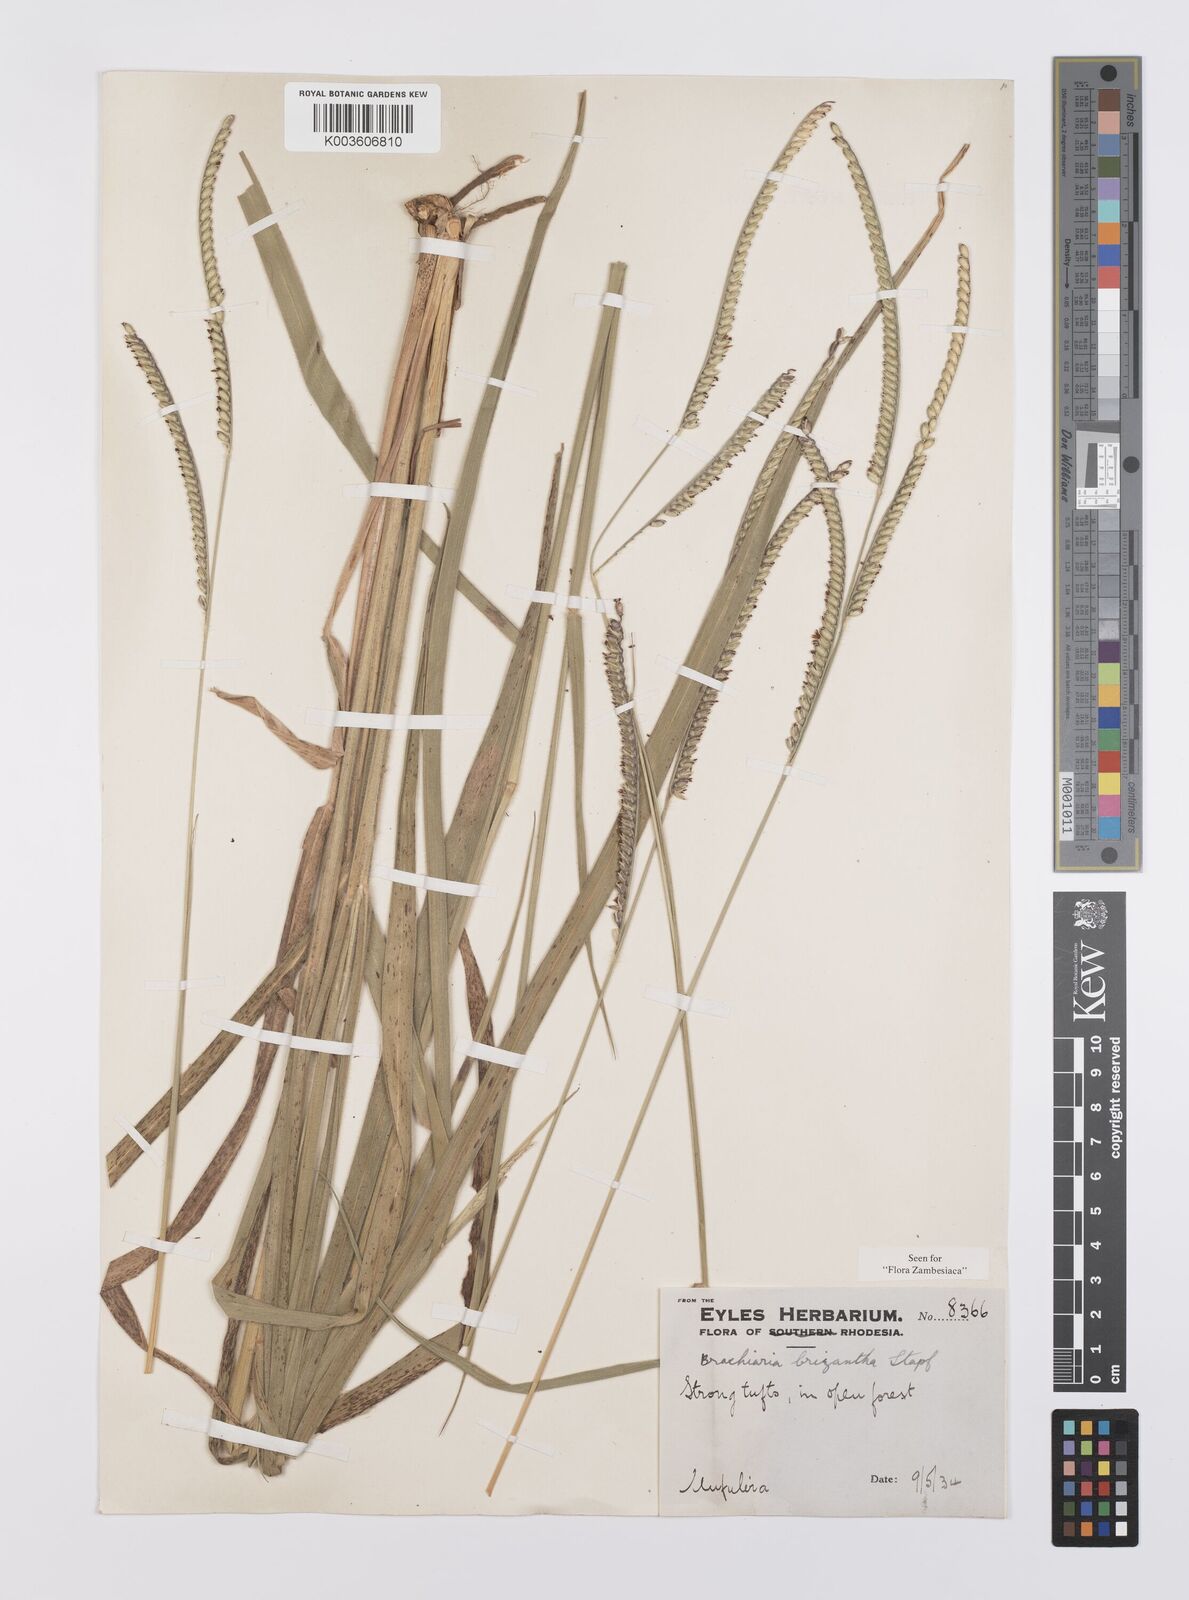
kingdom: Plantae
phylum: Tracheophyta
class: Liliopsida
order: Poales
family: Poaceae
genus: Urochloa
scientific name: Urochloa brizantha
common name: Palisade signalgrass
